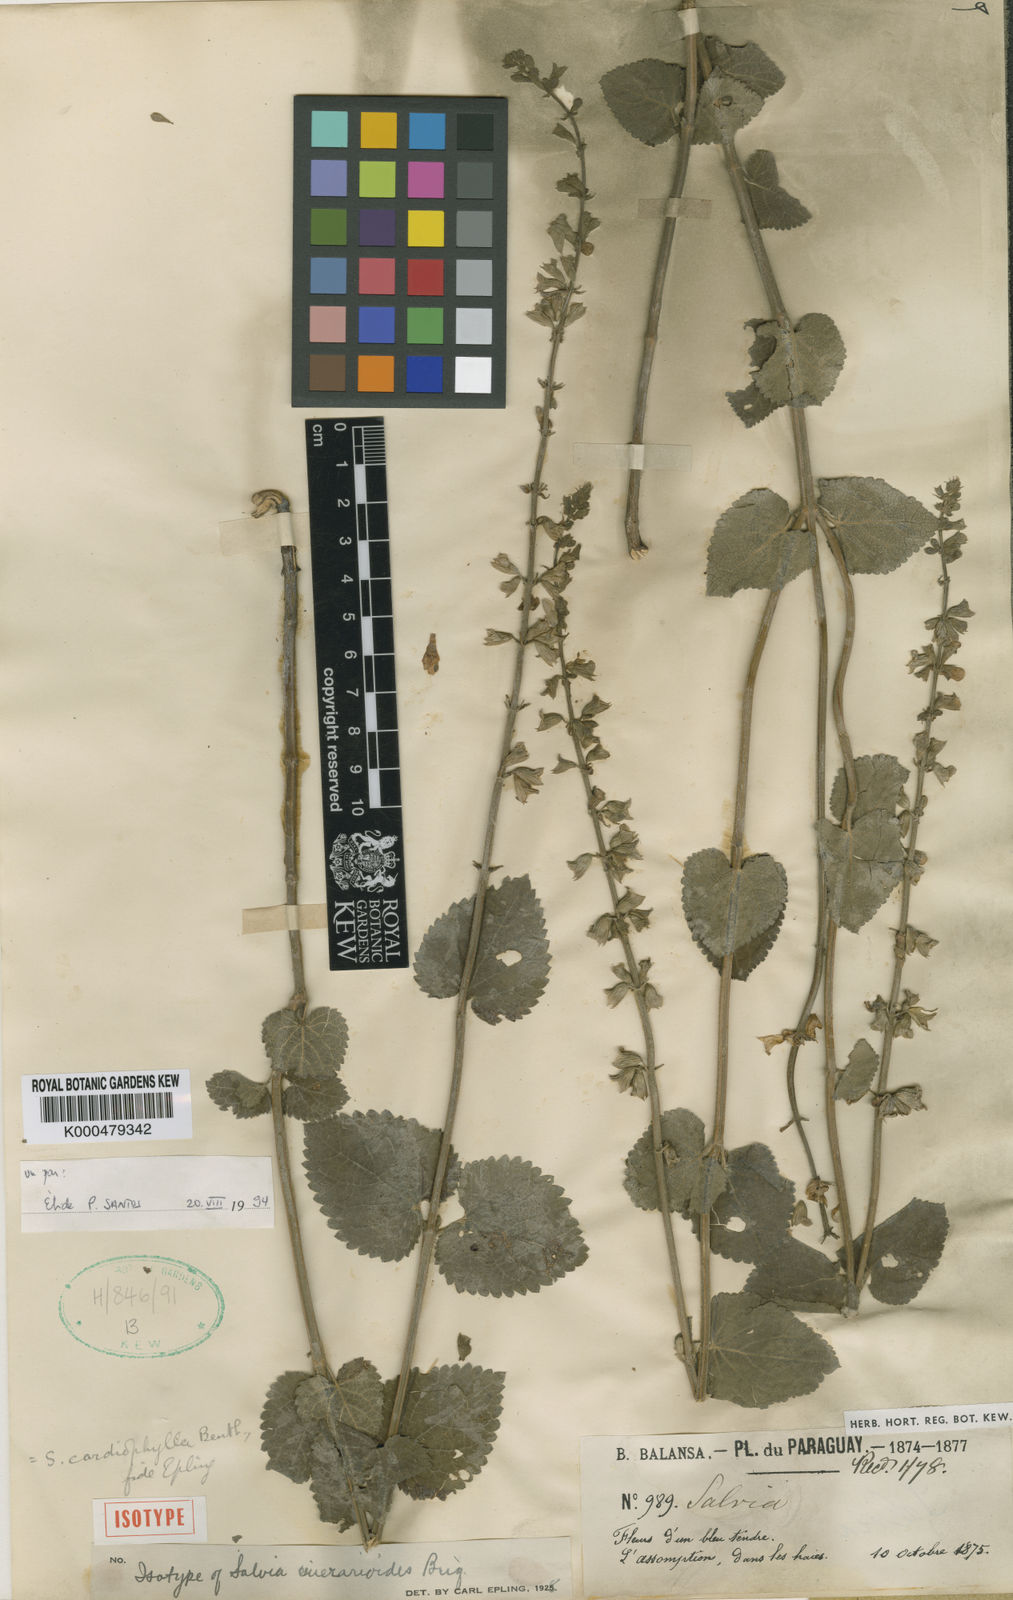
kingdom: Plantae
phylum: Tracheophyta
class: Magnoliopsida
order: Lamiales
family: Lamiaceae
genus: Salvia
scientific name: Salvia cardiophylla
